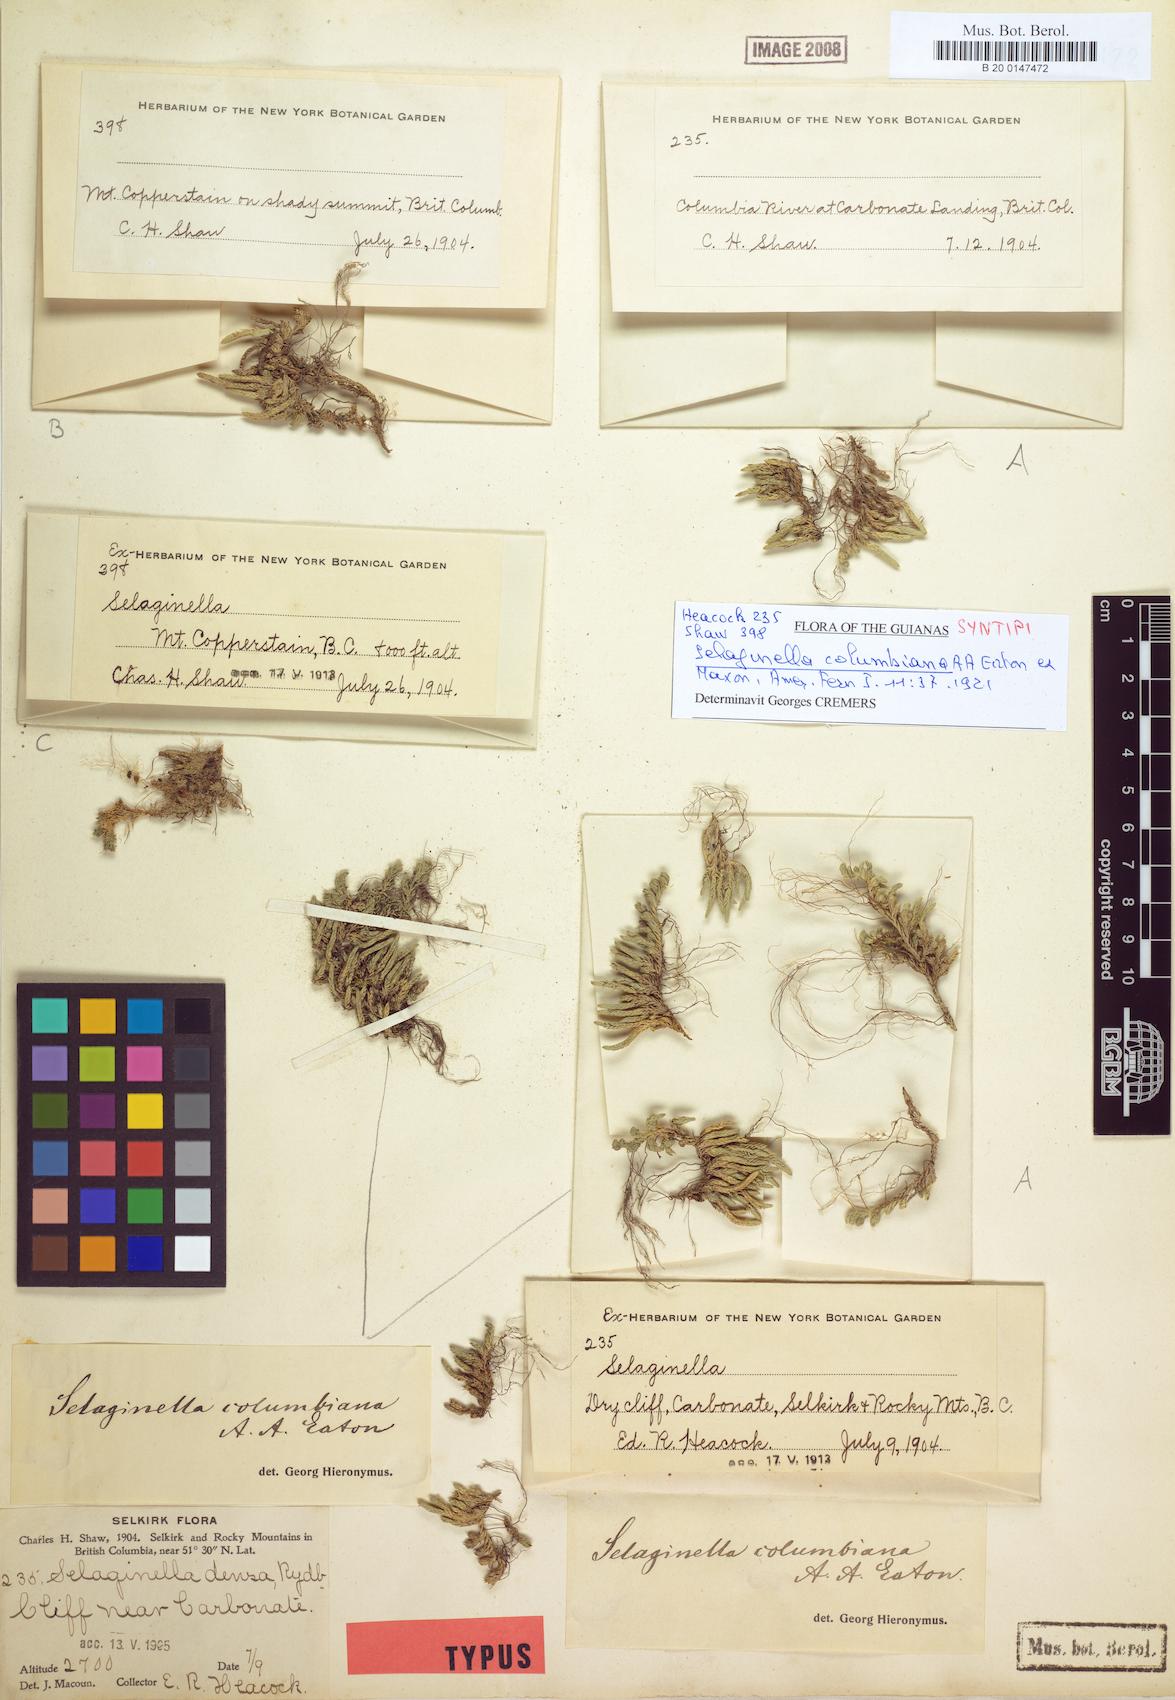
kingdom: Plantae
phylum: Tracheophyta
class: Lycopodiopsida
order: Selaginellales
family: Selaginellaceae
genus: Selaginella
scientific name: Selaginella densa
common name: Mountain spike-moss
